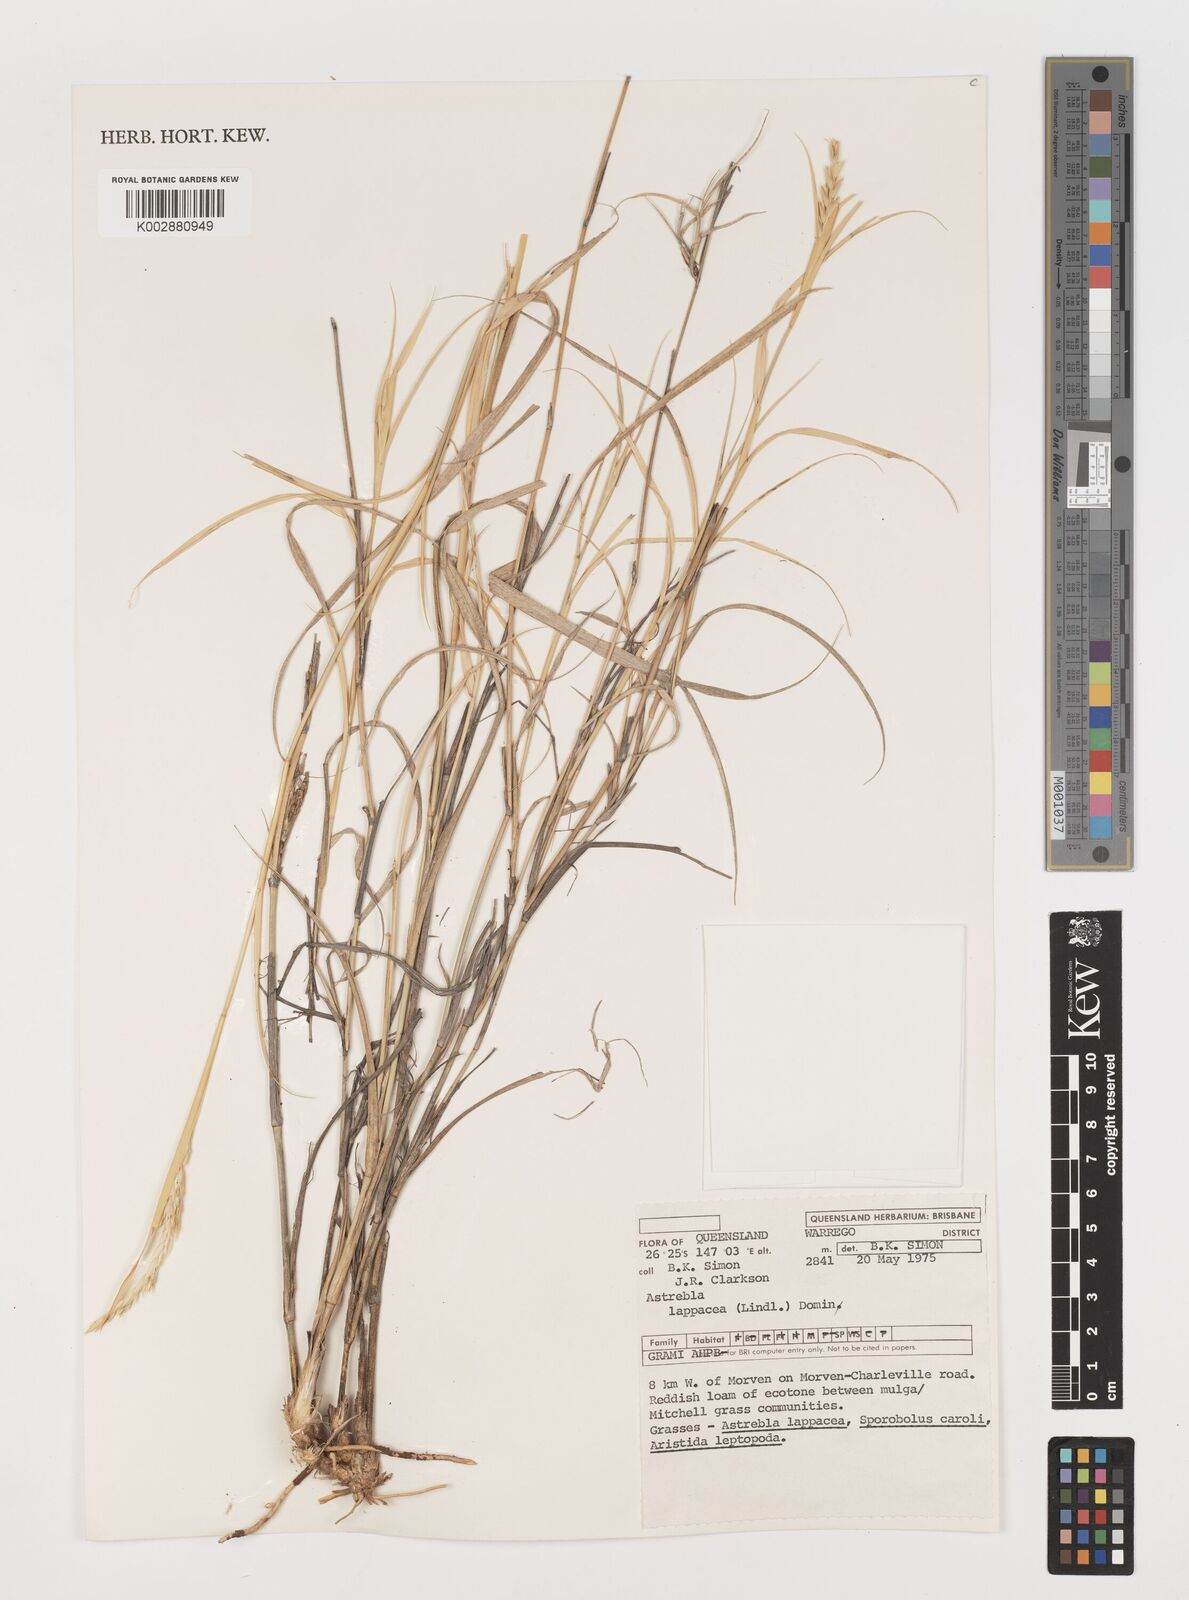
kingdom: Plantae
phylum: Tracheophyta
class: Liliopsida
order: Poales
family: Poaceae
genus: Astrebla
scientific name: Astrebla lappacea
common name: Curly mitchell grass
